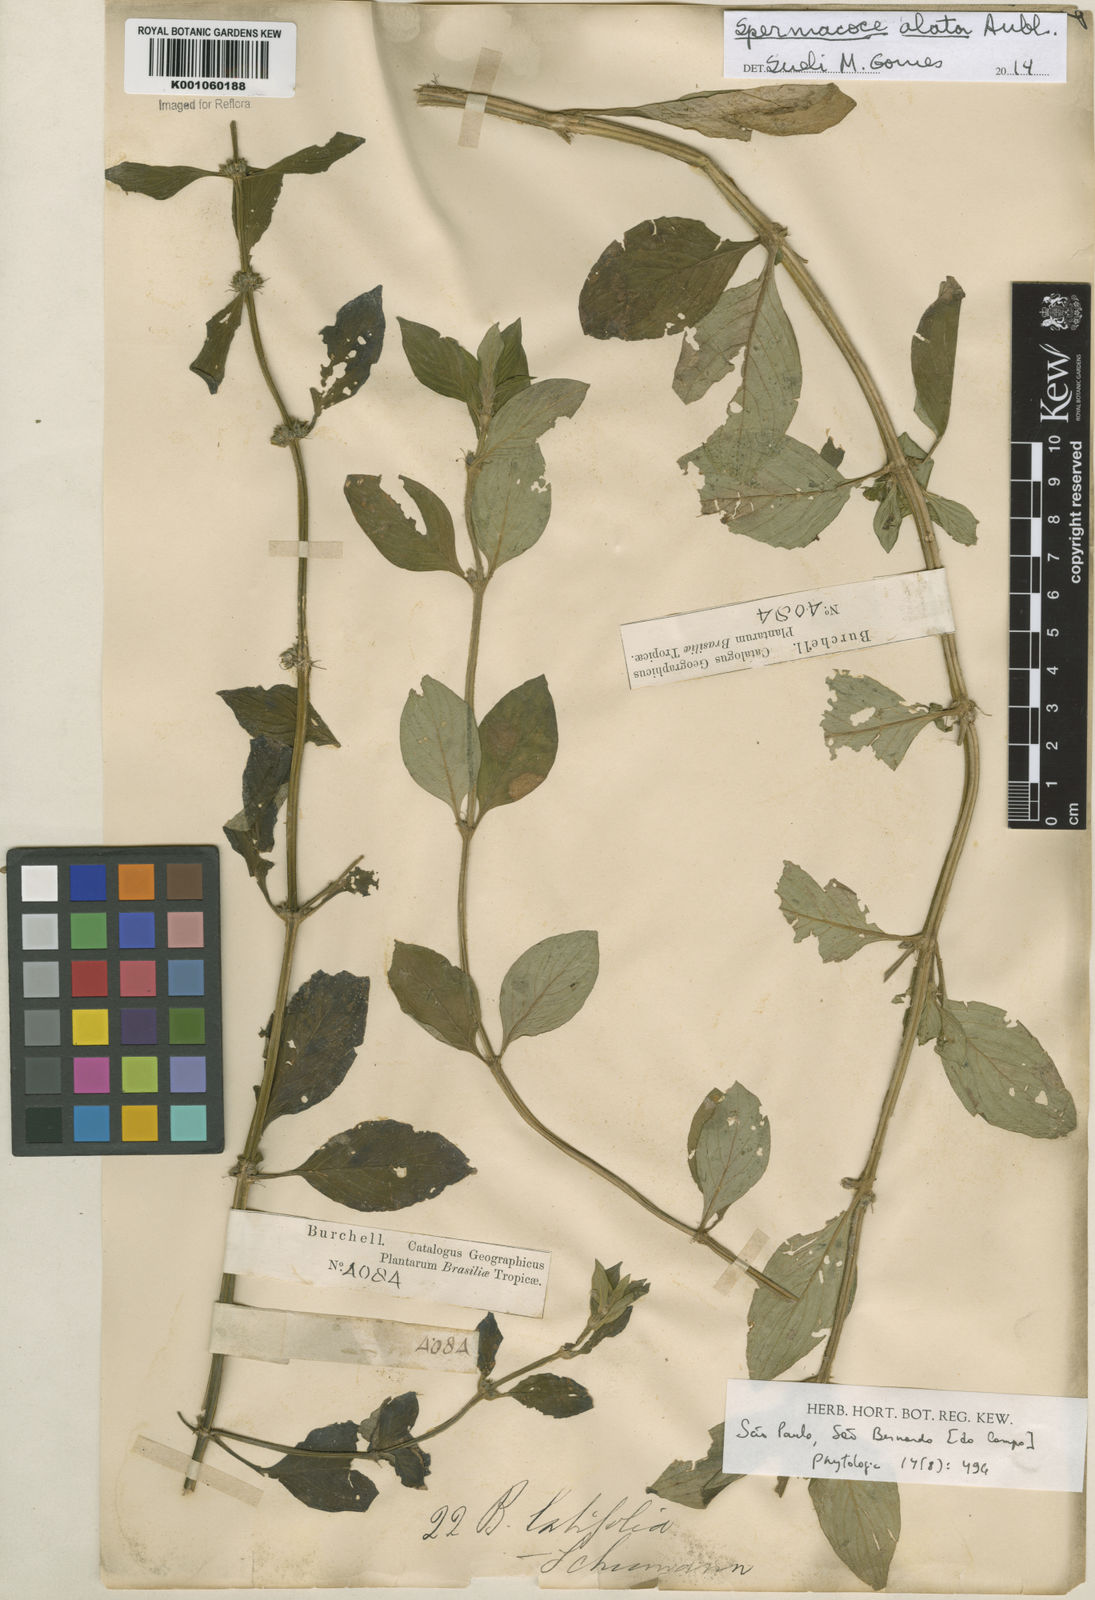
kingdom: Plantae
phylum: Tracheophyta
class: Magnoliopsida
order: Gentianales
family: Rubiaceae
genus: Spermacoce
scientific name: Spermacoce
